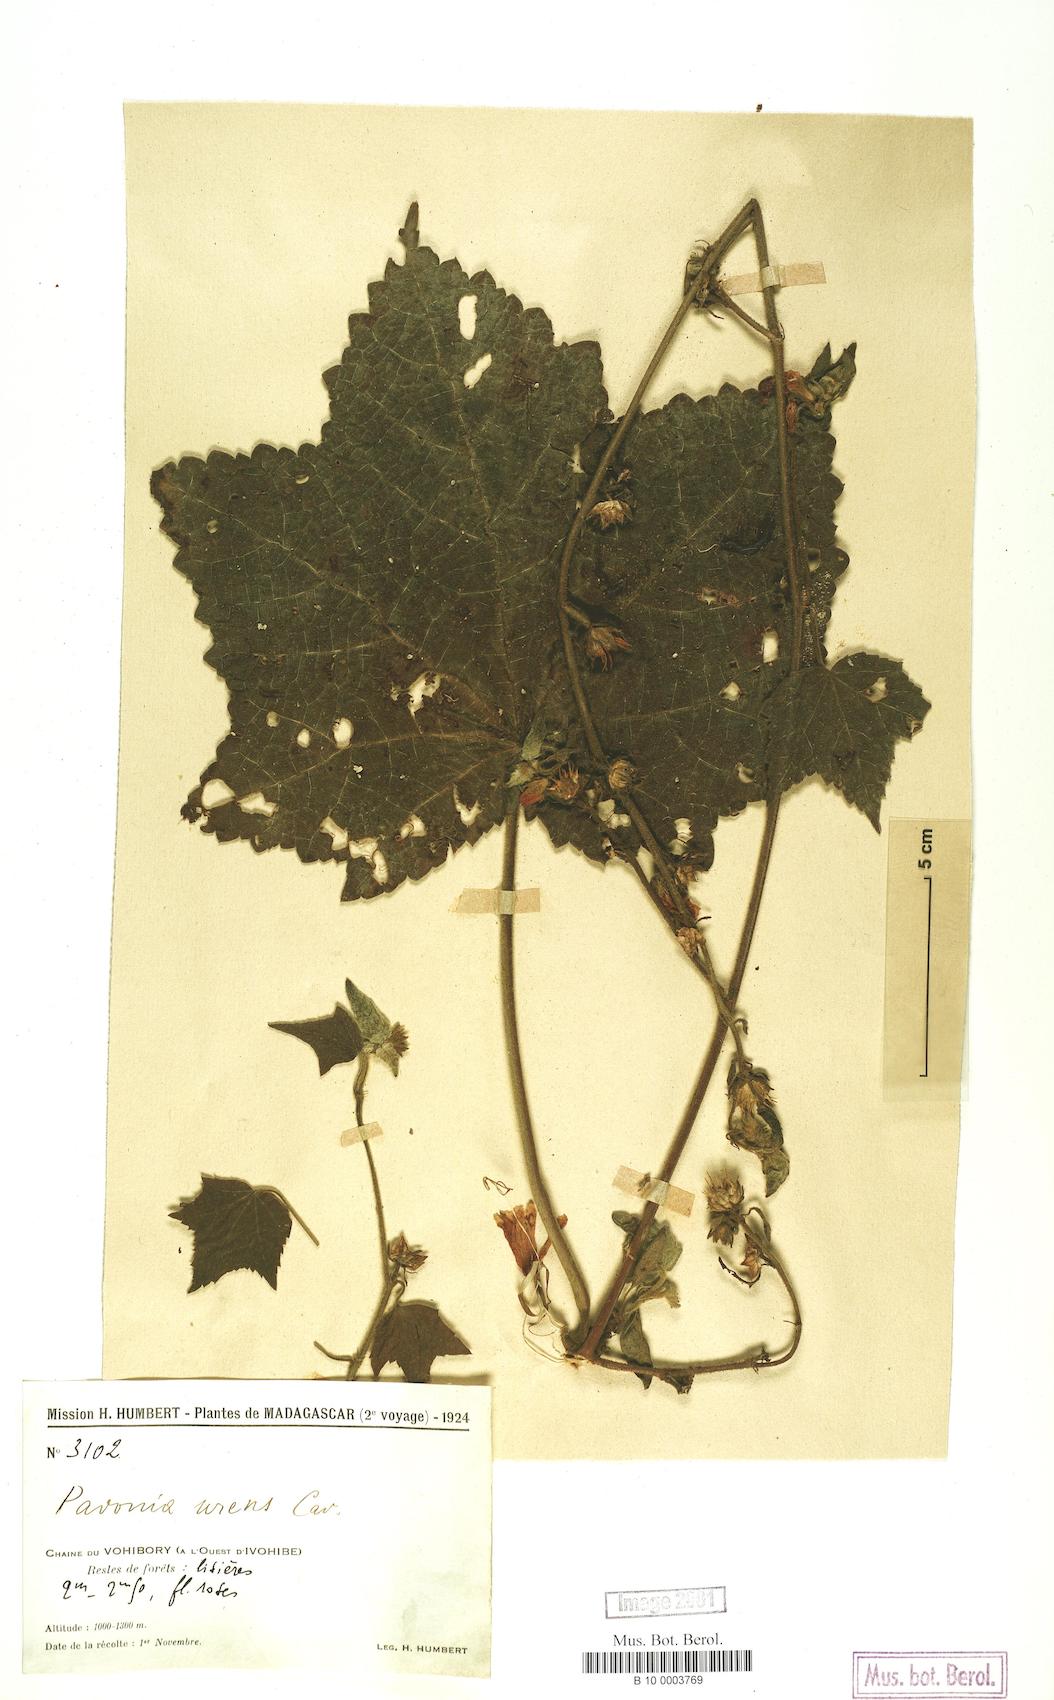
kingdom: Plantae
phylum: Tracheophyta
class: Magnoliopsida
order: Malvales
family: Malvaceae
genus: Pavonia
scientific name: Pavonia urens
